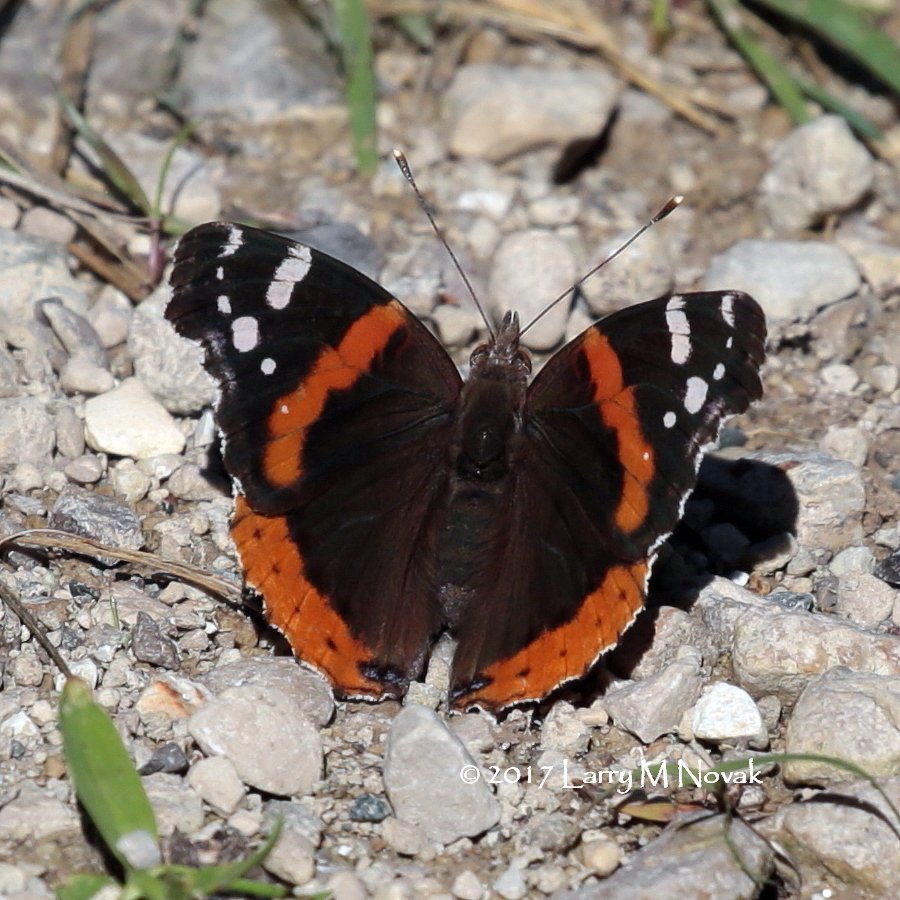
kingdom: Animalia
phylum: Arthropoda
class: Insecta
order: Lepidoptera
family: Nymphalidae
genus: Vanessa
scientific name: Vanessa atalanta
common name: Red Admiral
